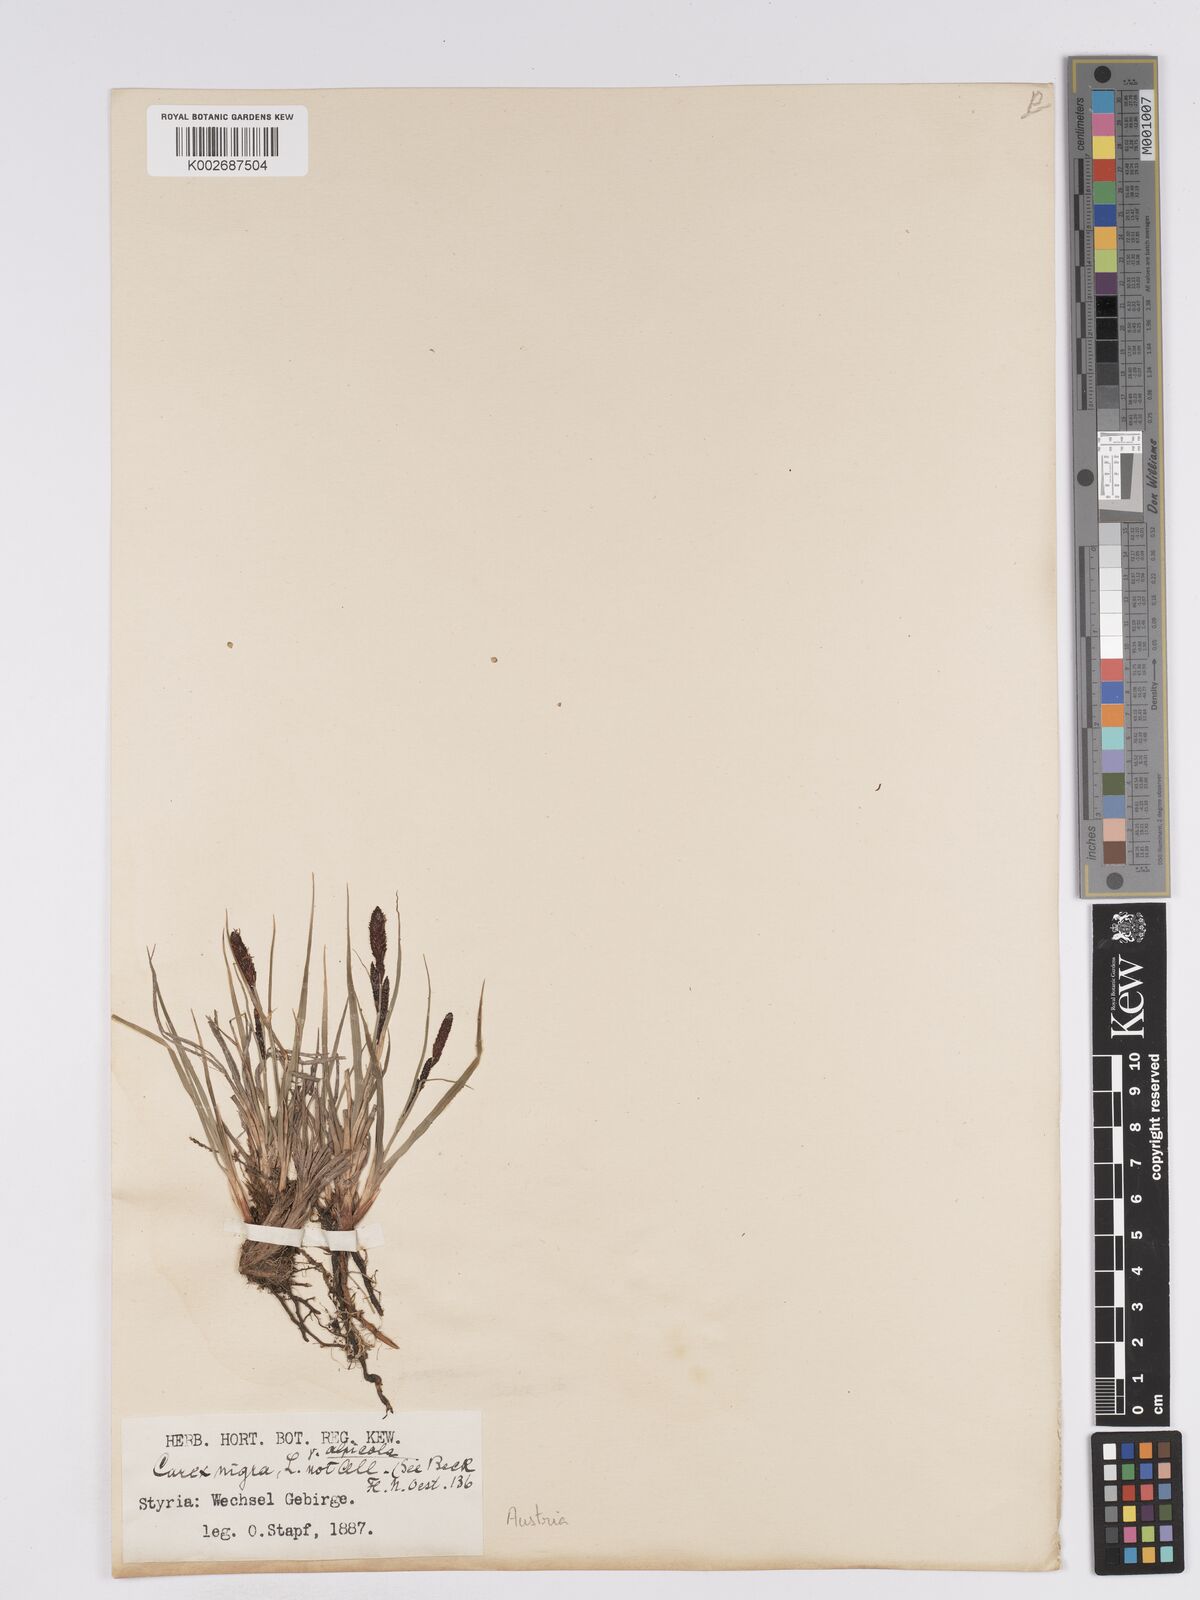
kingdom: Plantae
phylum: Tracheophyta
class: Liliopsida
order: Poales
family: Cyperaceae
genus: Carex
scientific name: Carex nigra
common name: Common sedge
